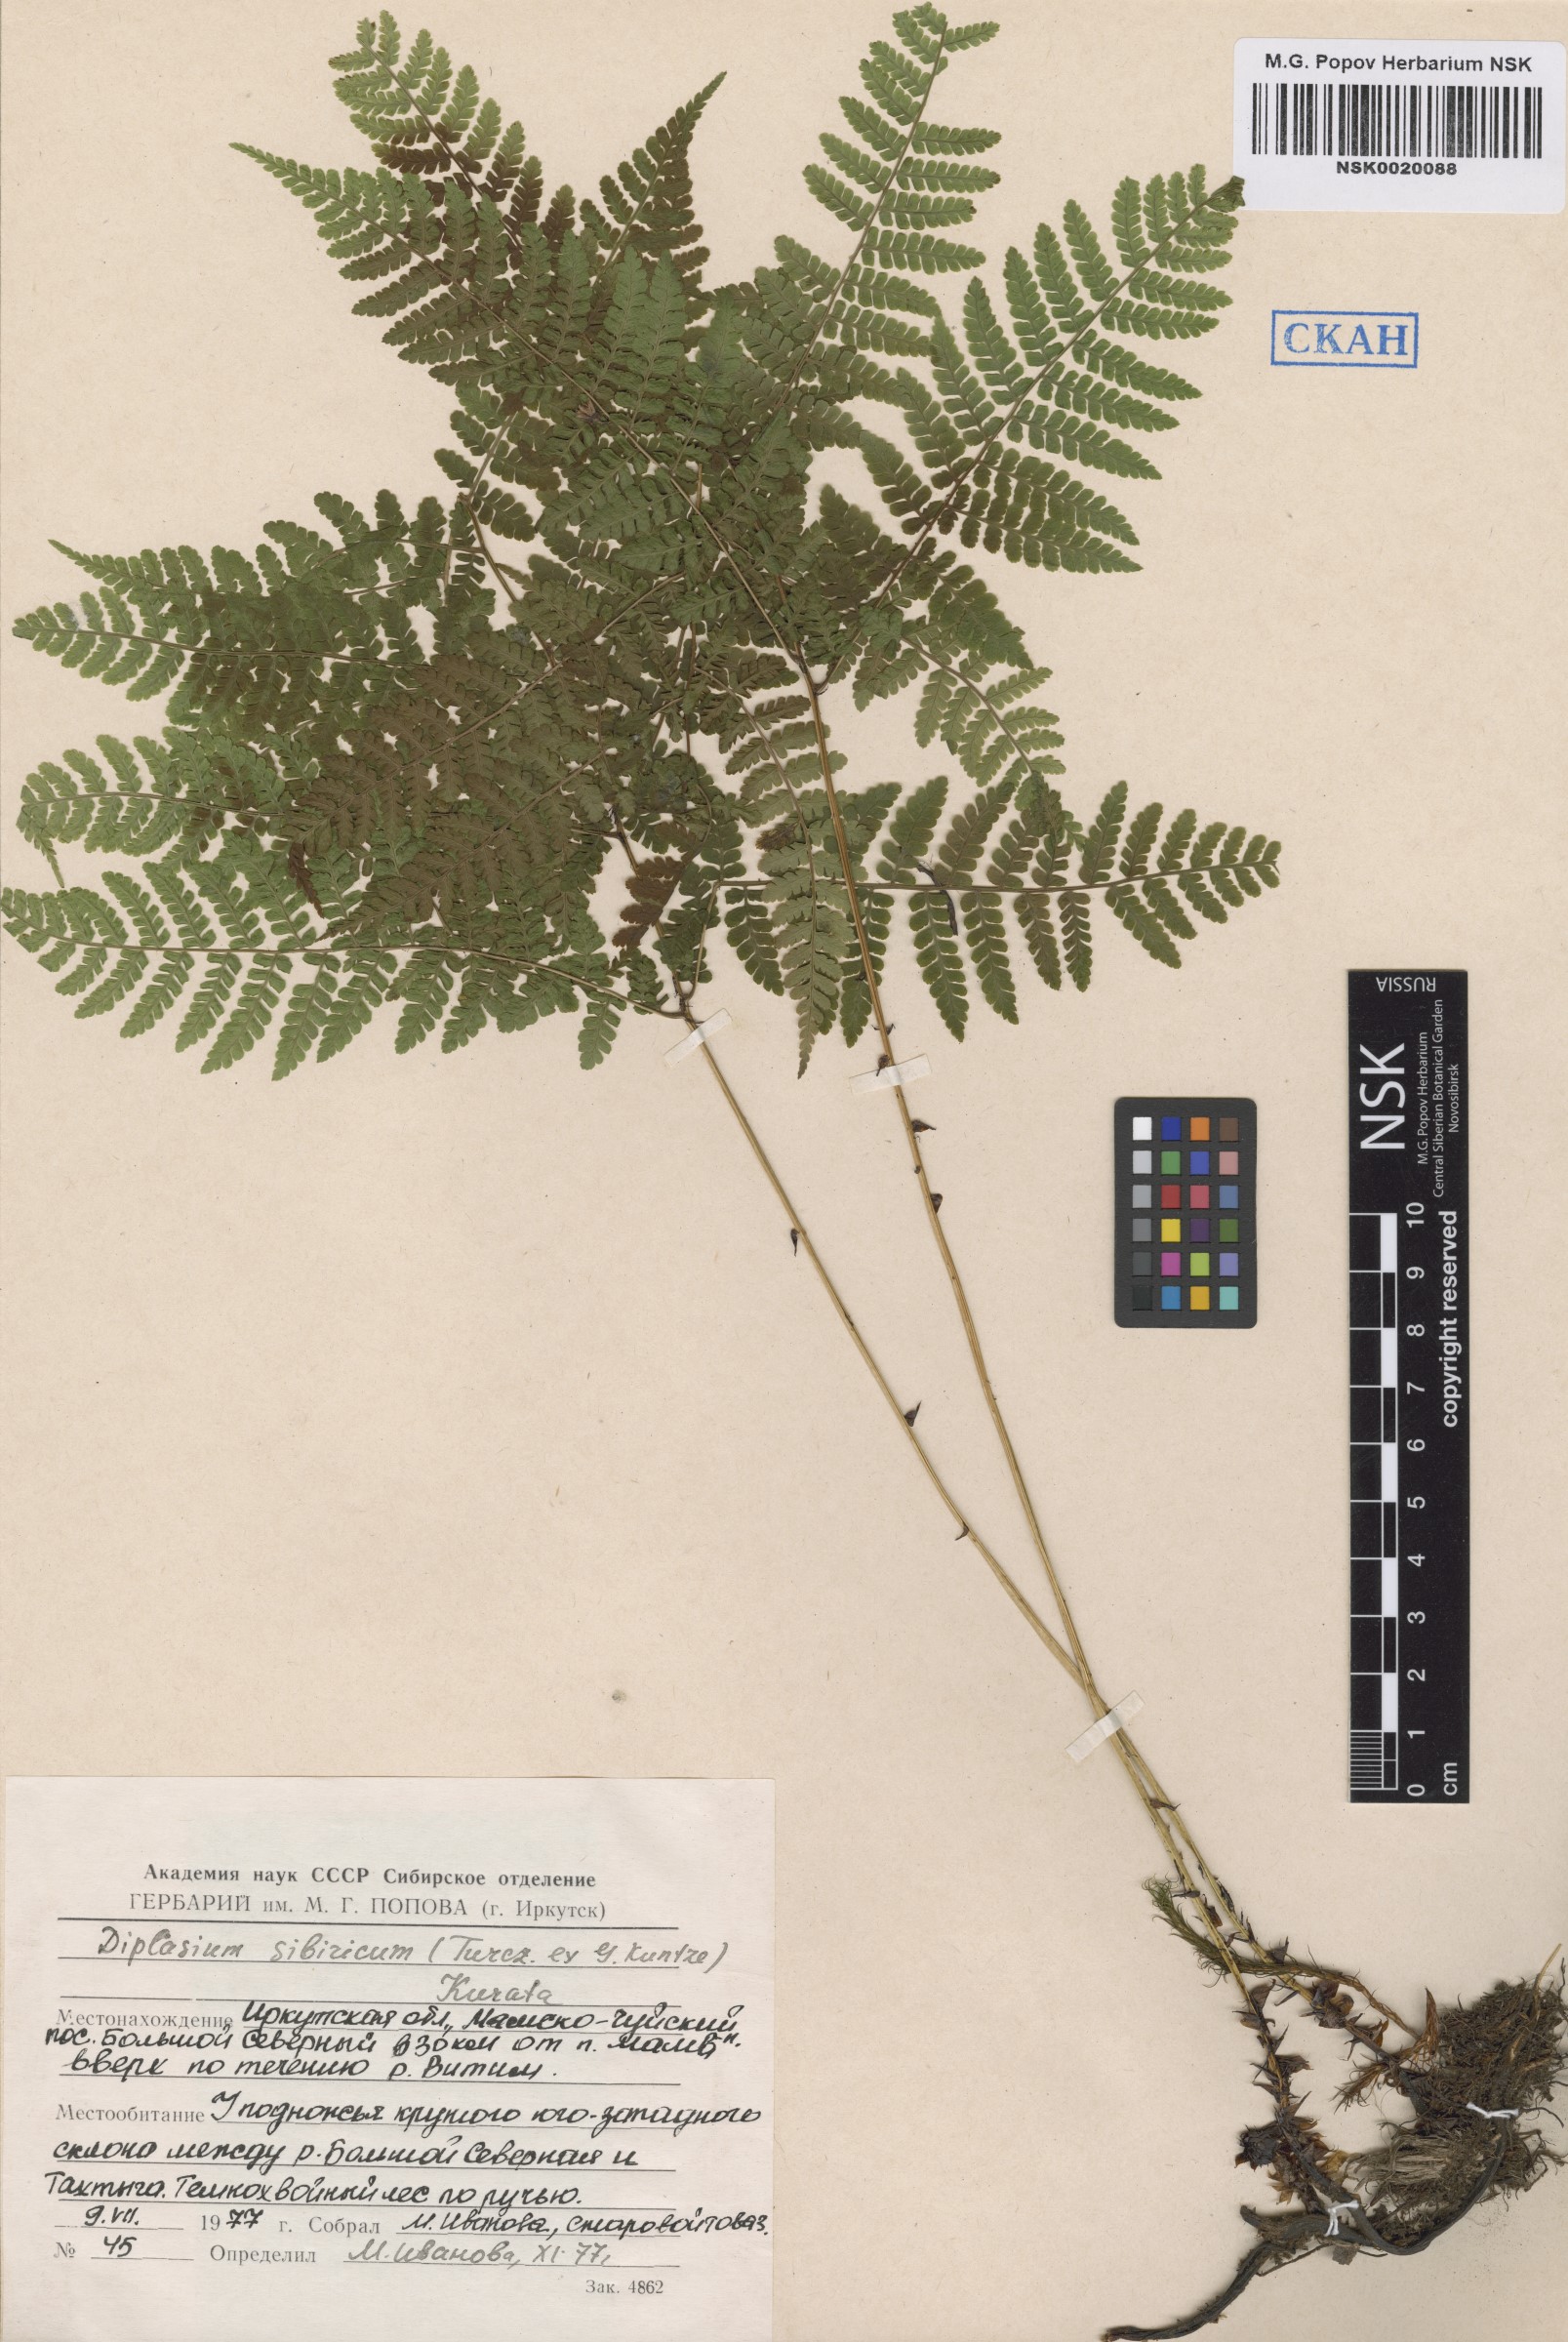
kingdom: Plantae
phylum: Tracheophyta
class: Polypodiopsida
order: Polypodiales
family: Athyriaceae
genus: Diplazium
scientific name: Diplazium sibiricum
